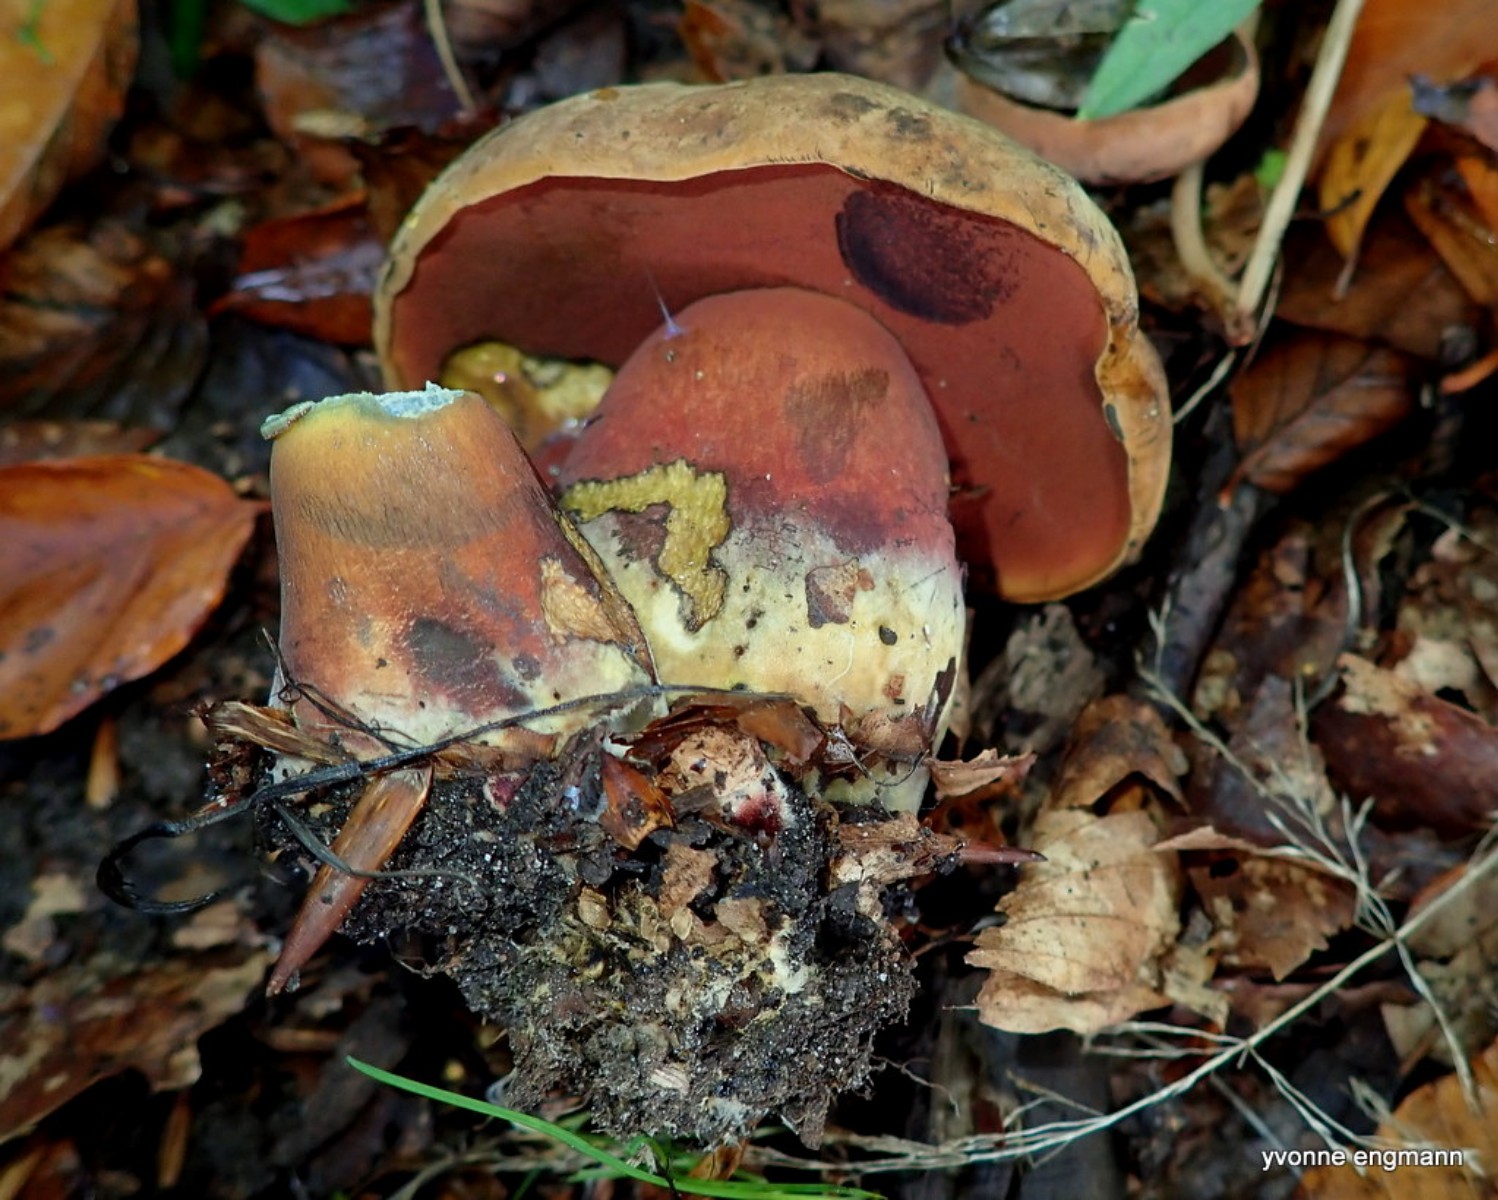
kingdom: Fungi
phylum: Basidiomycota
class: Agaricomycetes
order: Boletales
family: Boletaceae
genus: Neoboletus
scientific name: Neoboletus erythropus
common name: punktstokket indigorørhat
